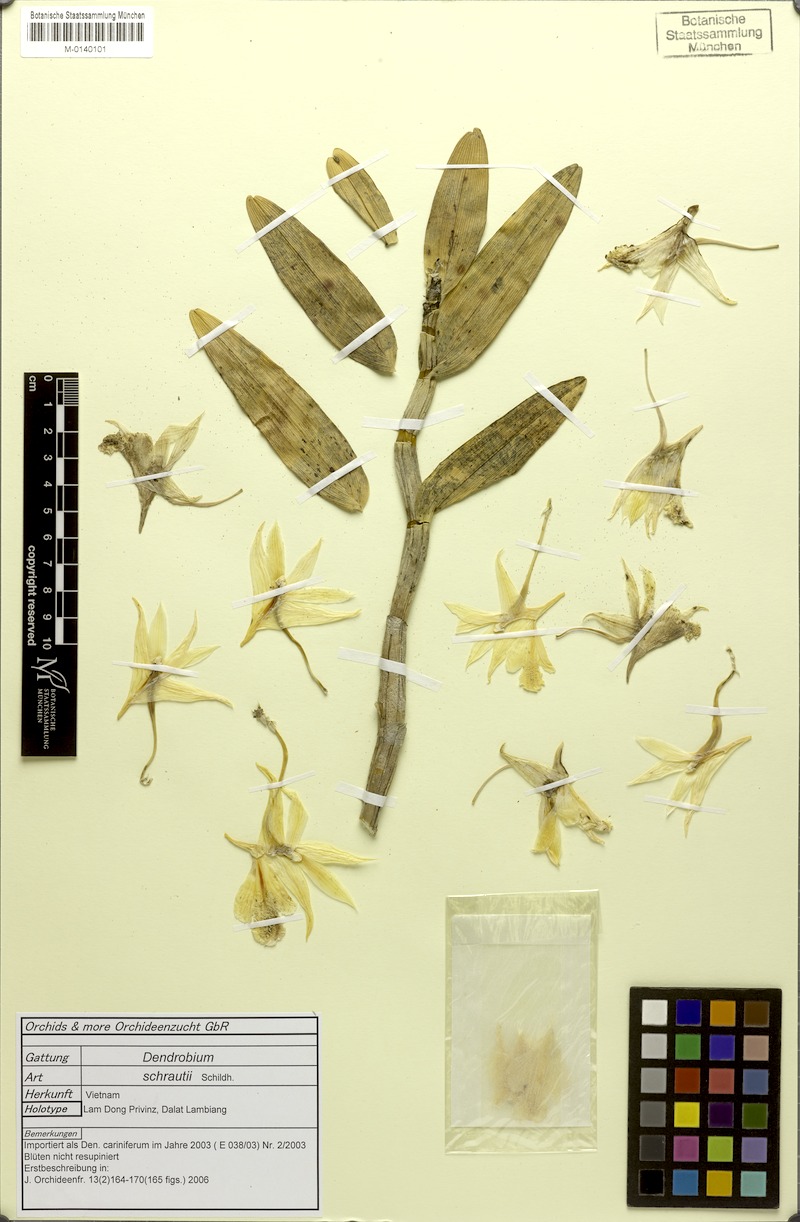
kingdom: Plantae
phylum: Tracheophyta
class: Liliopsida
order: Asparagales
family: Orchidaceae
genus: Dendrobium
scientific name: Dendrobium cariniferum
